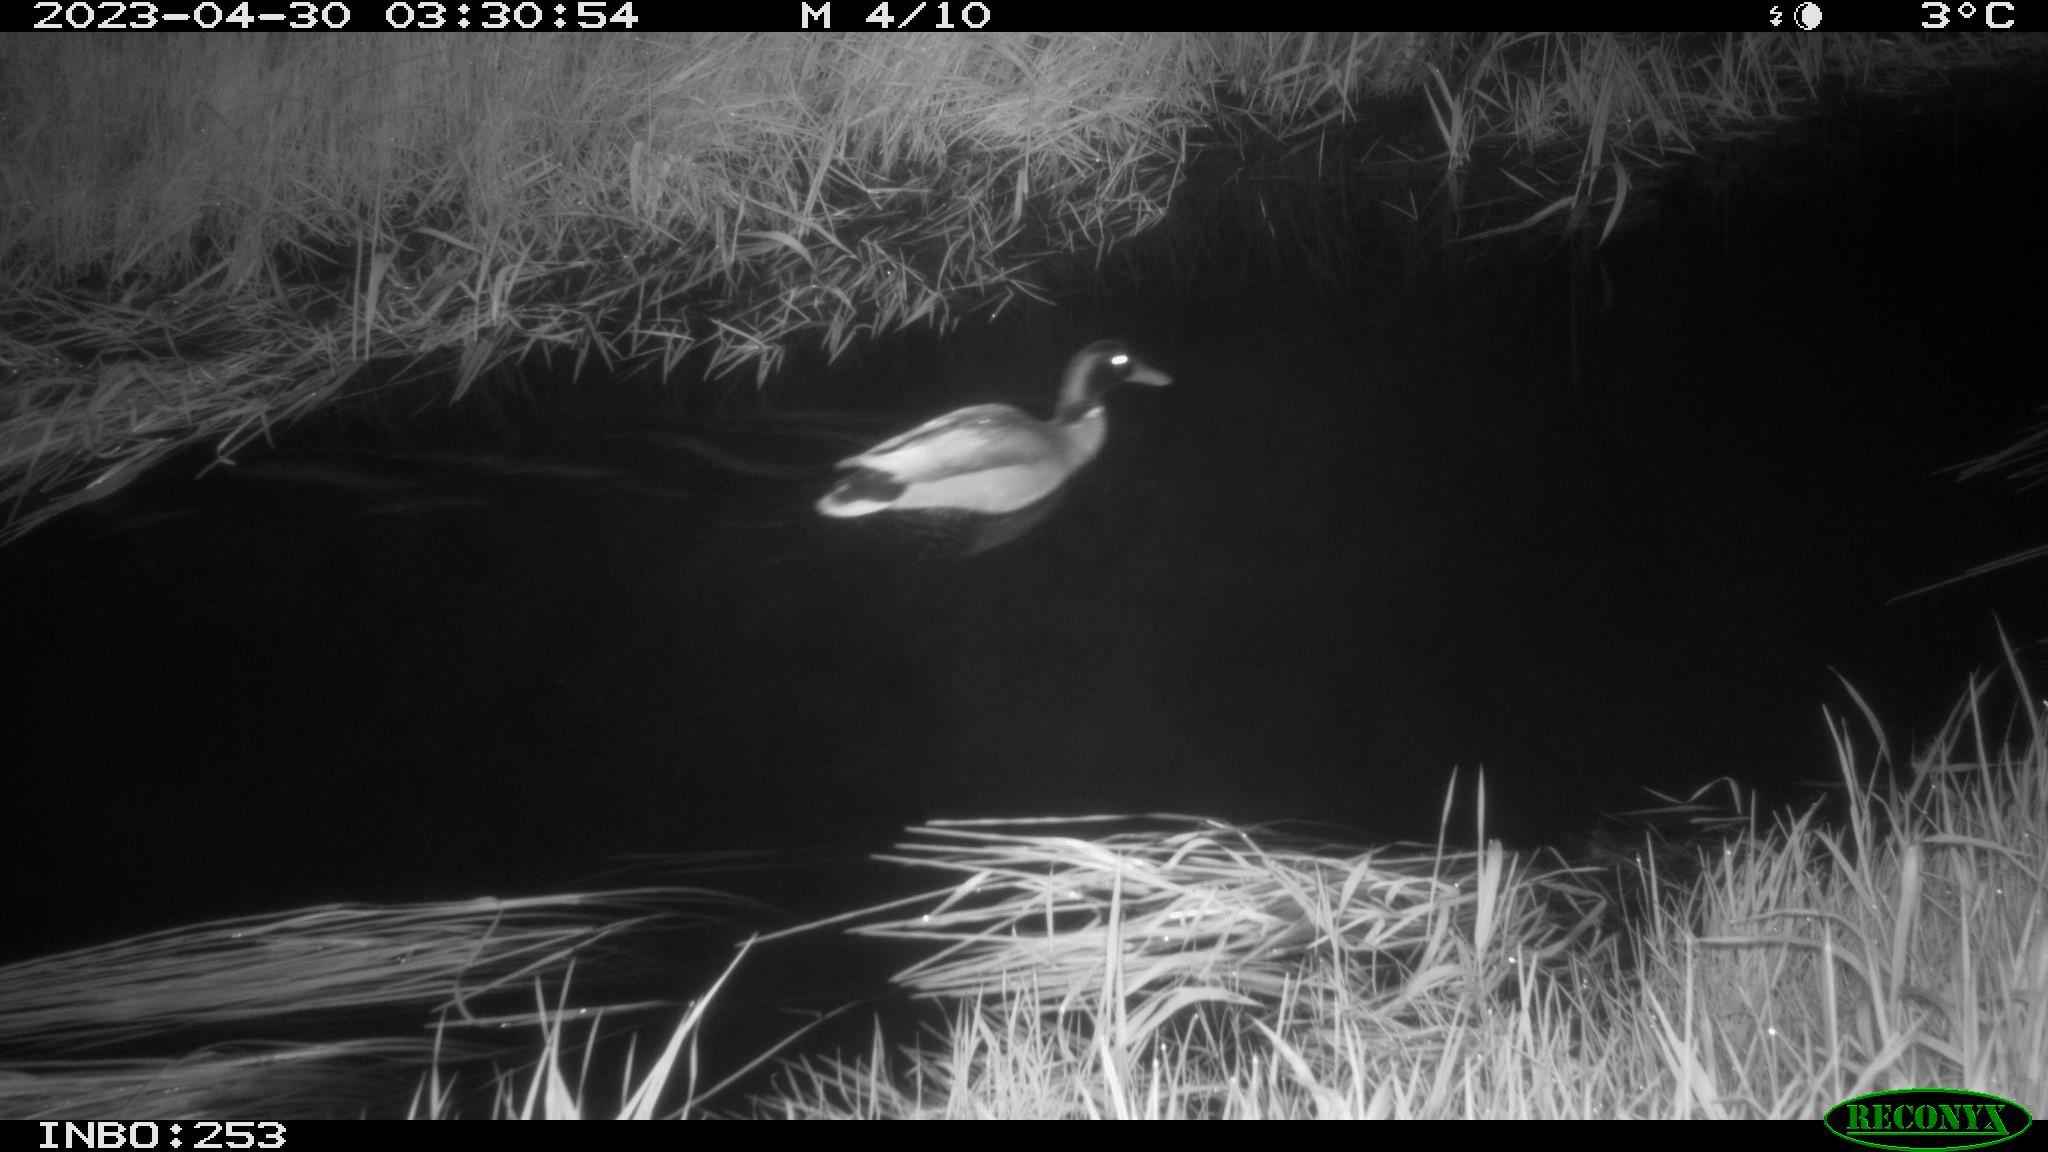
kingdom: Animalia
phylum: Chordata
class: Aves
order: Anseriformes
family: Anatidae
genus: Anas
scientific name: Anas
